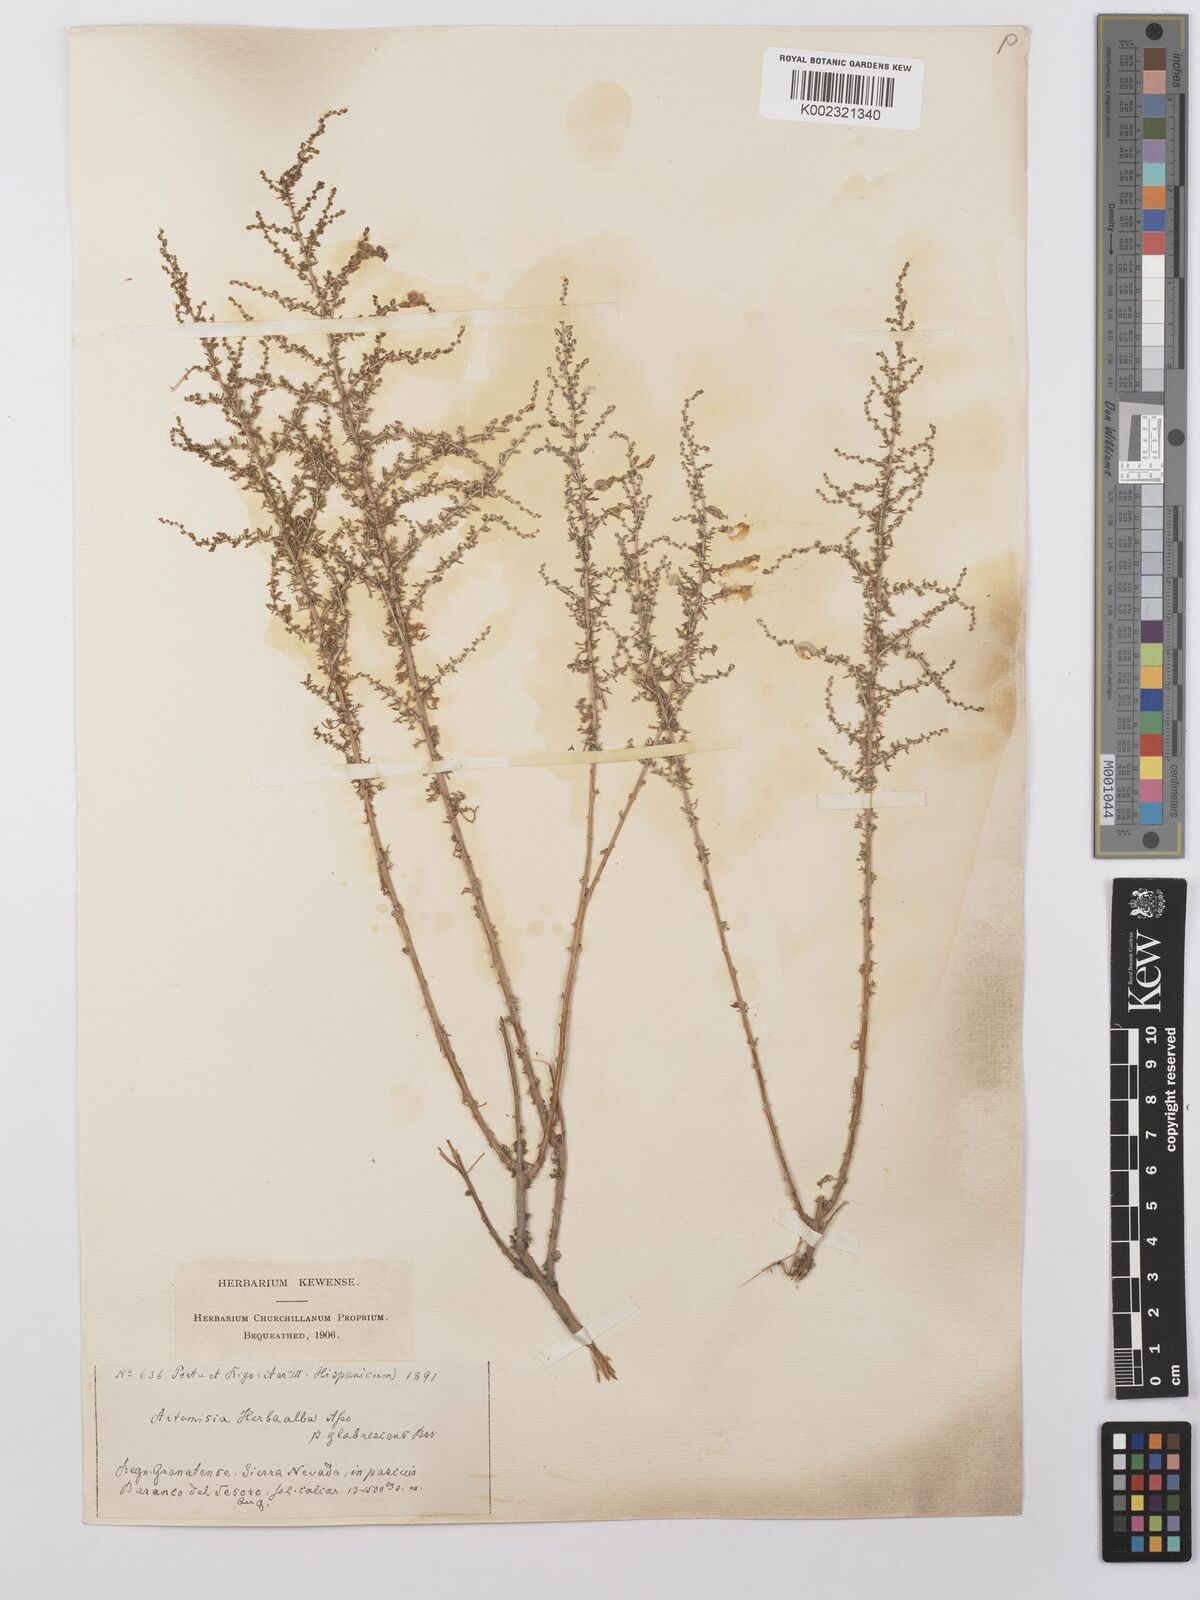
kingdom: Plantae
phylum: Tracheophyta
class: Magnoliopsida
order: Asterales
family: Asteraceae
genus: Artemisia
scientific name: Artemisia herba-alba
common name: White wormwood
